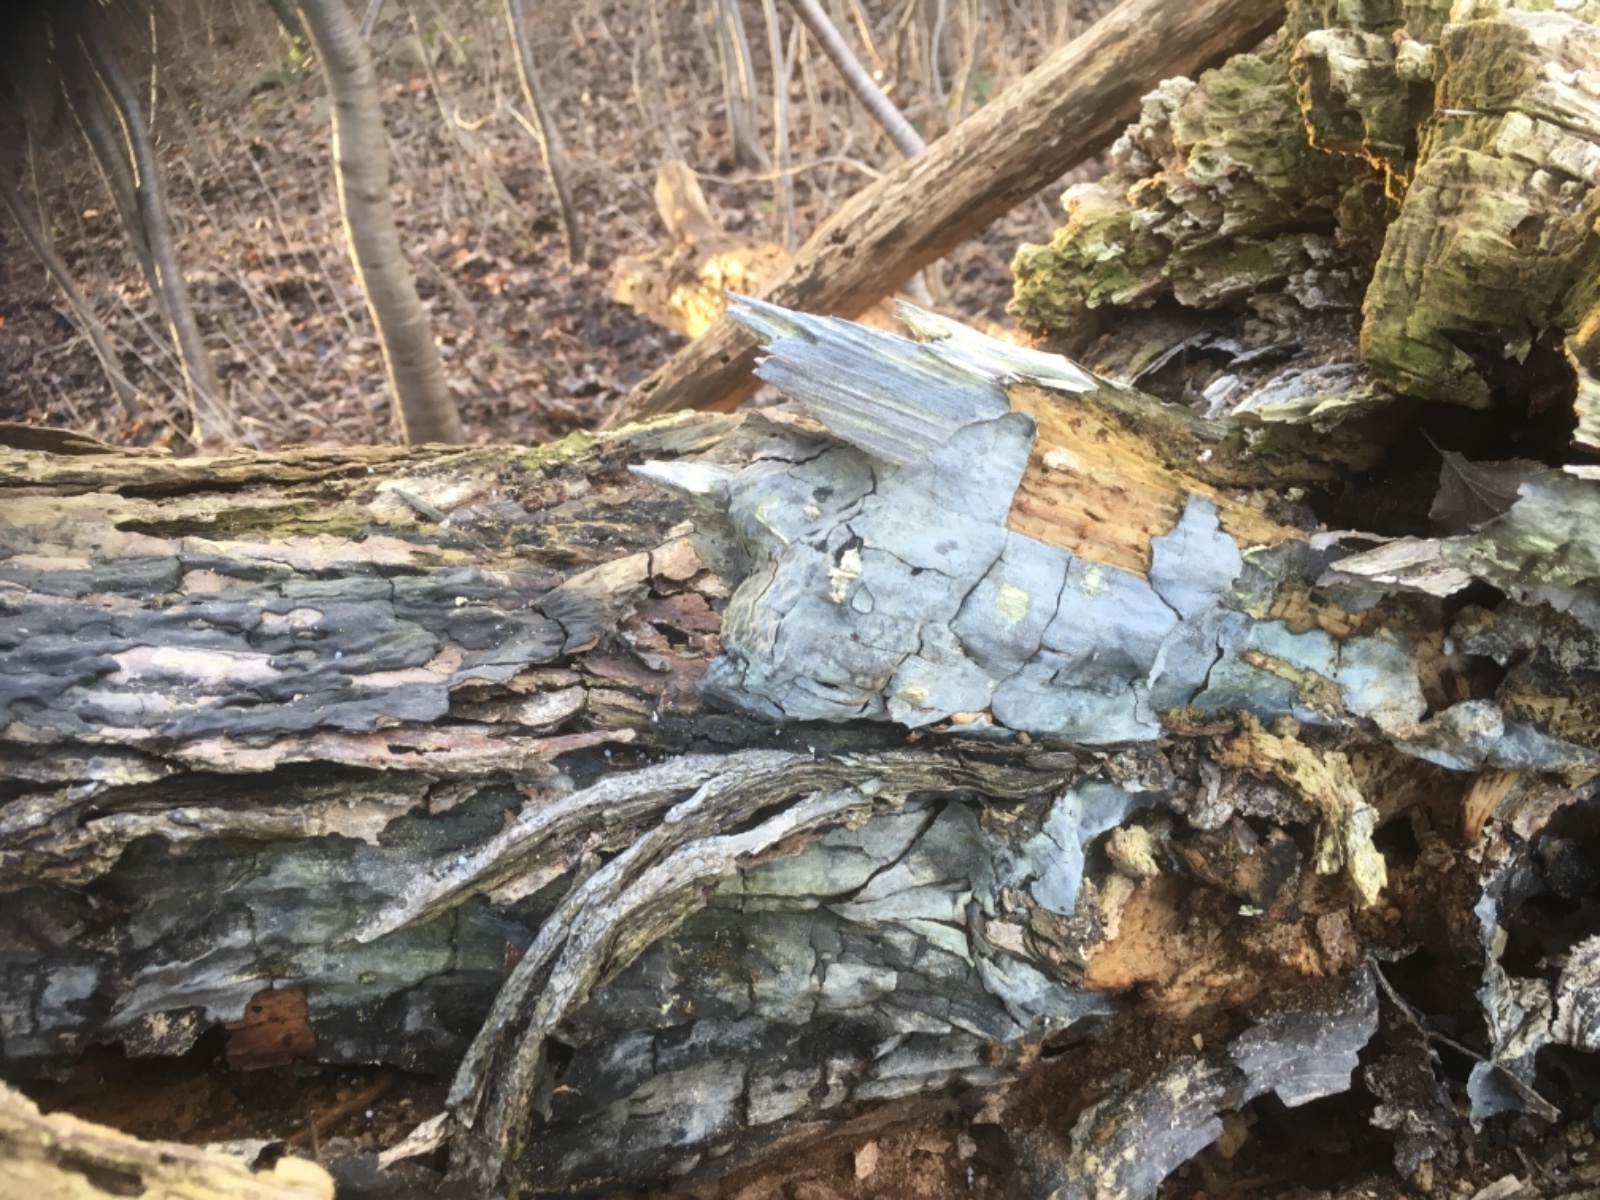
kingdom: Fungi
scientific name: Fungi
